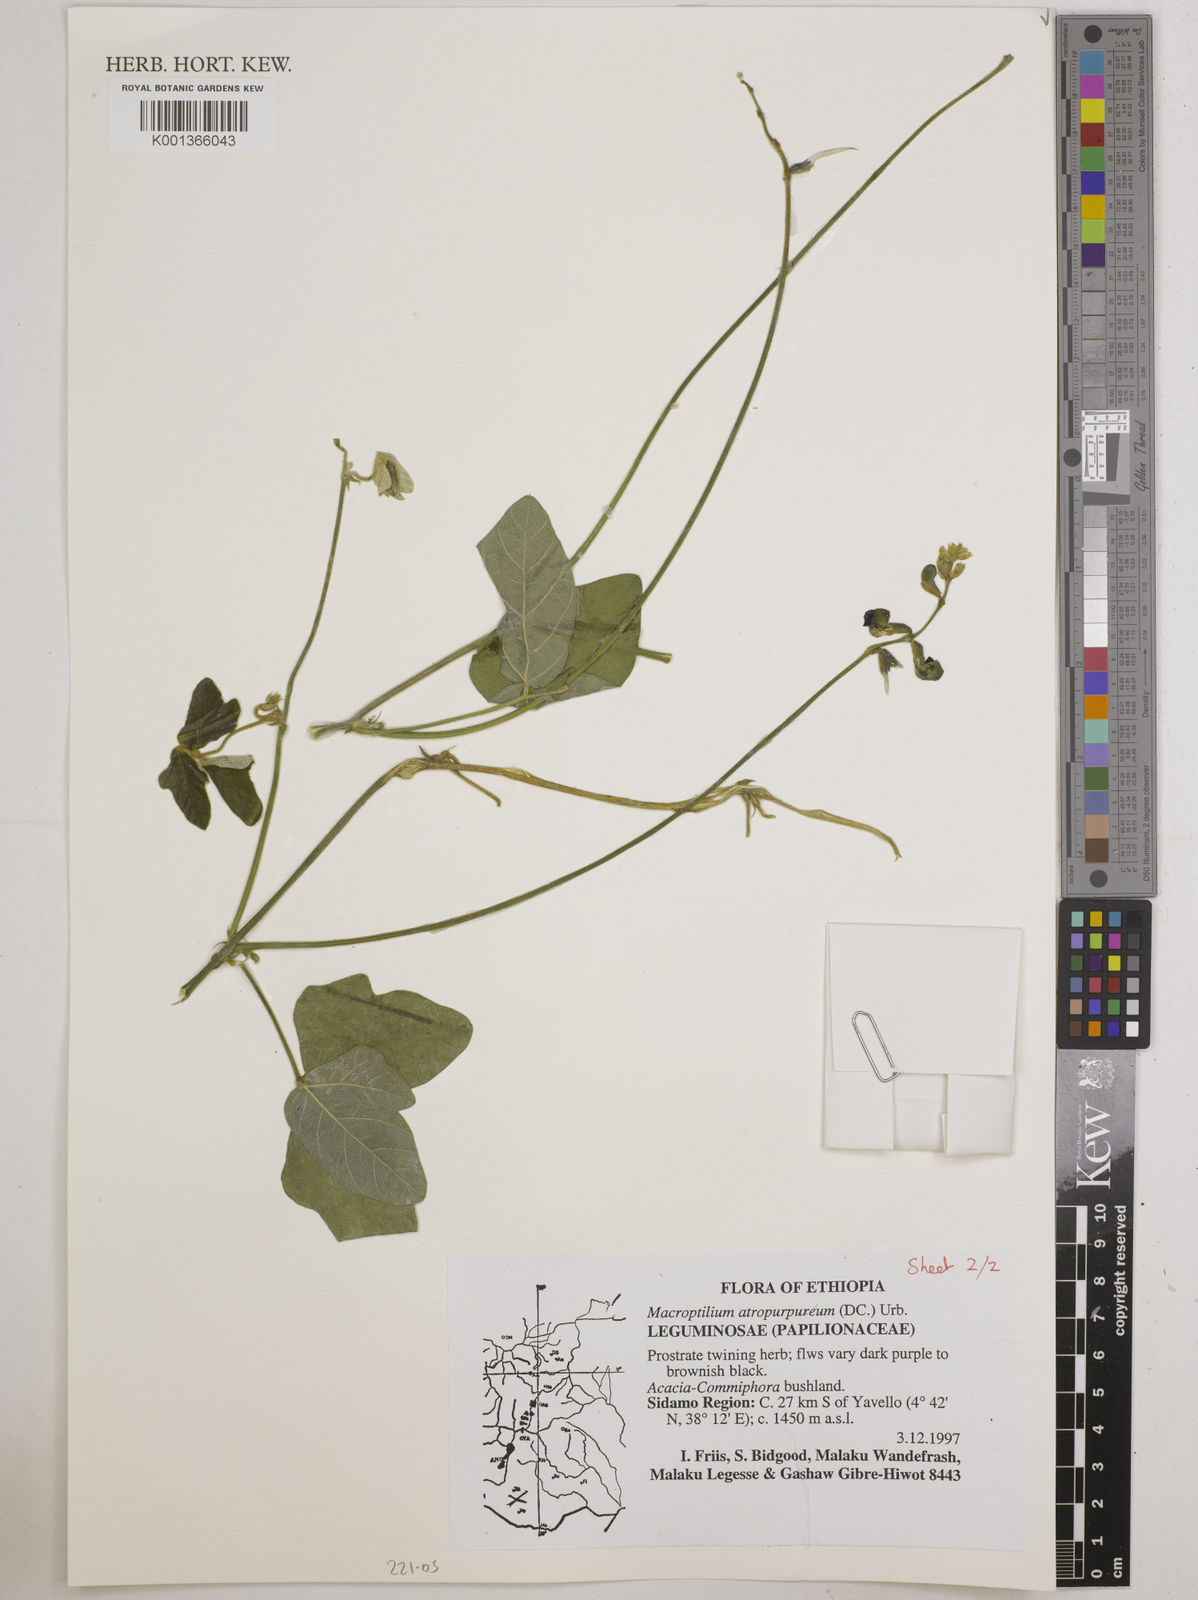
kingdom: Plantae
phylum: Tracheophyta
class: Magnoliopsida
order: Fabales
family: Fabaceae
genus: Macroptilium
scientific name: Macroptilium atropurpureum
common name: Purple bushbean
